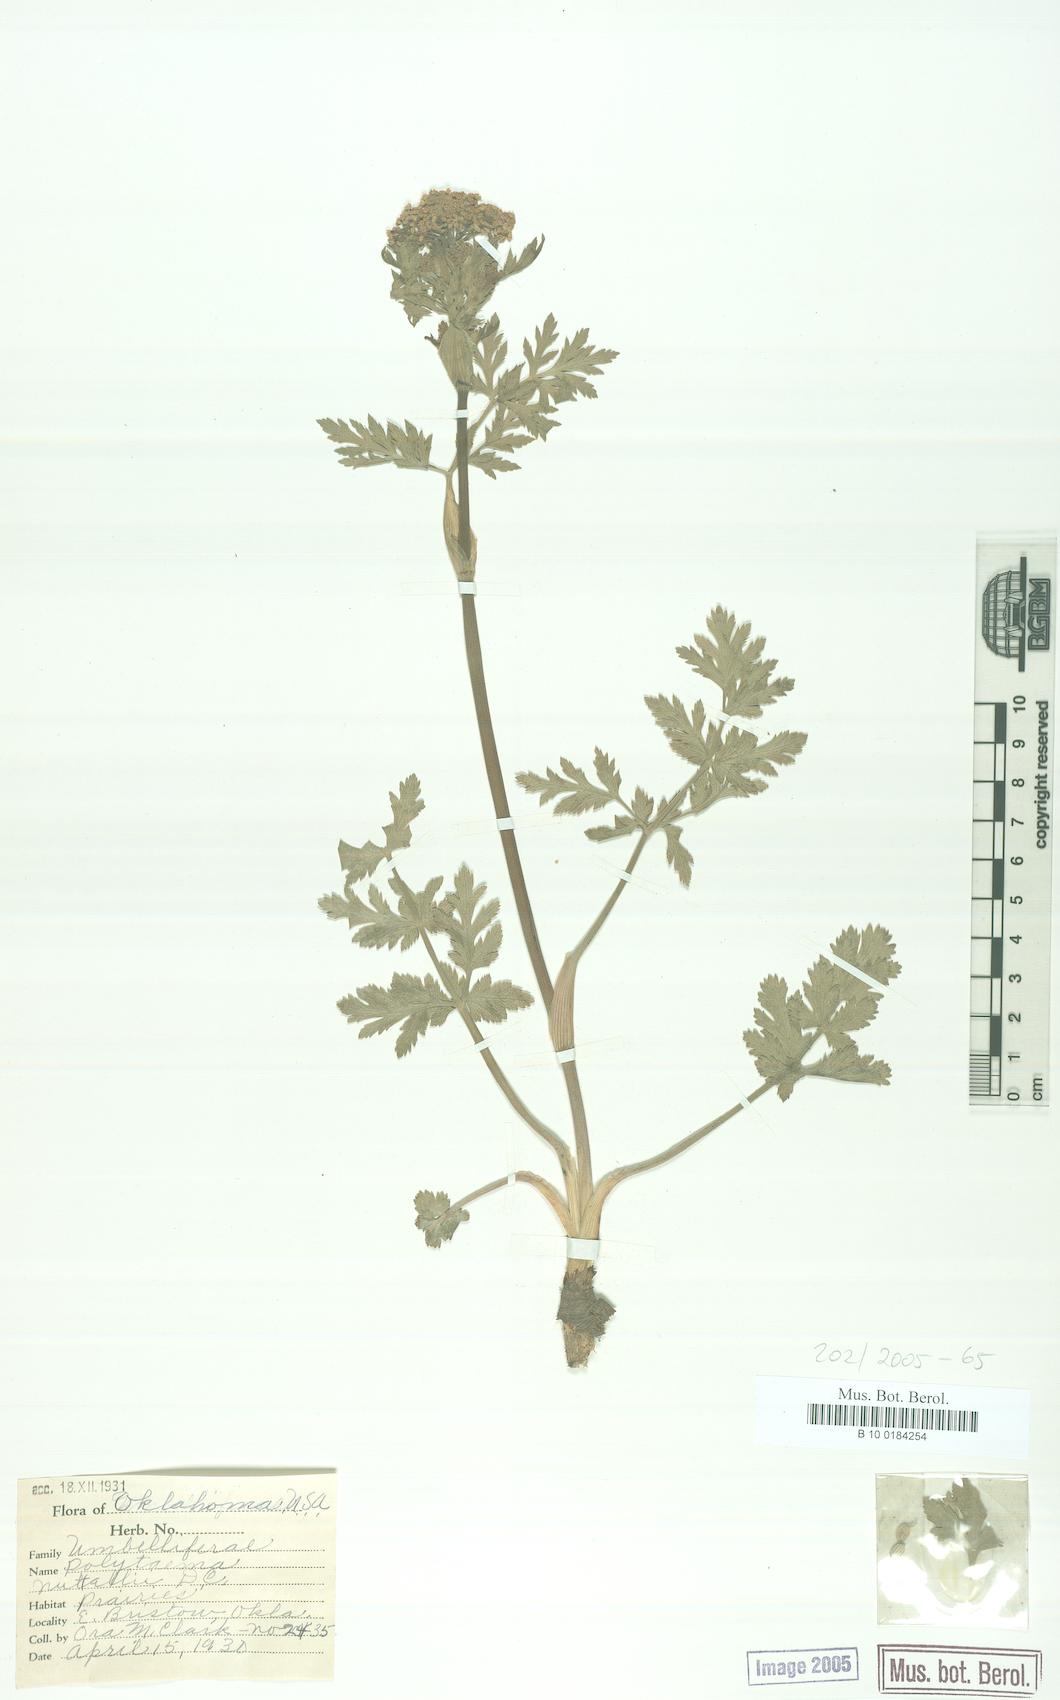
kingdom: Plantae
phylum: Tracheophyta
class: Magnoliopsida
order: Apiales
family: Apiaceae
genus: Polytaenia
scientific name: Polytaenia nuttallii
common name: Prairie-parsley
